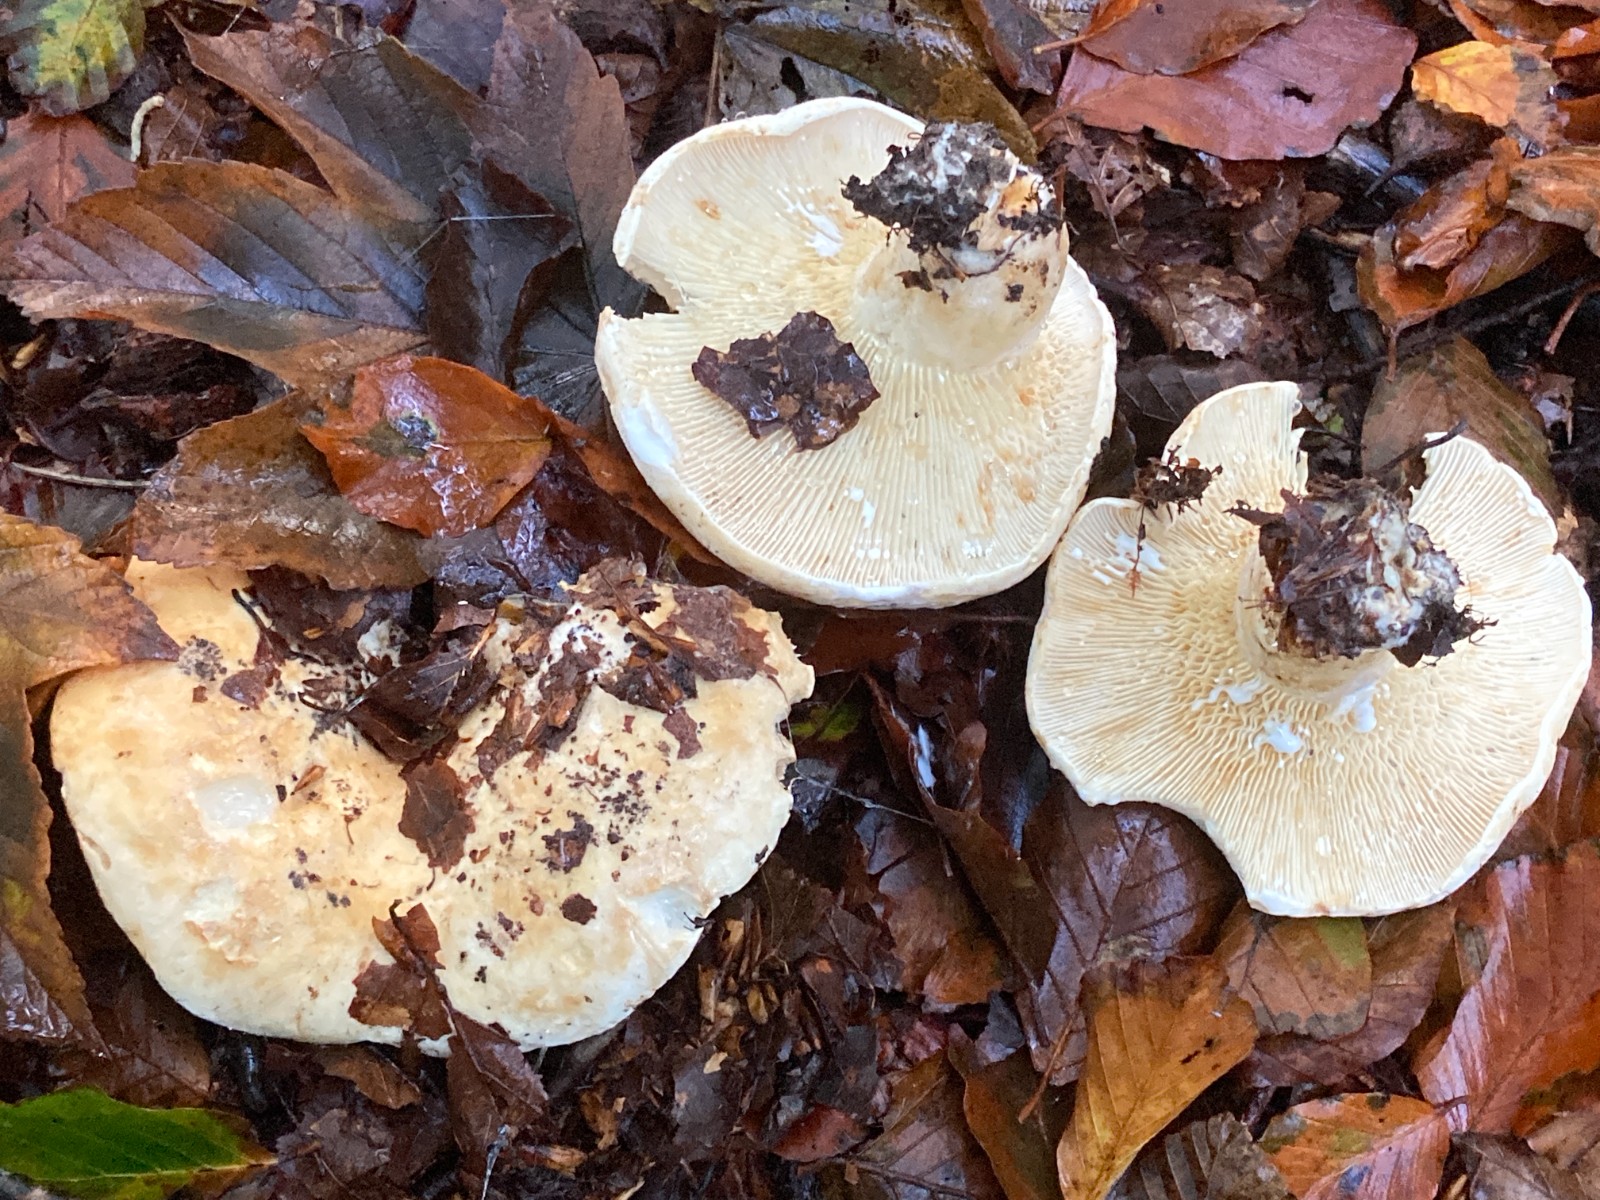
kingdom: Fungi
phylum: Basidiomycota
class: Agaricomycetes
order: Russulales
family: Russulaceae
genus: Lactifluus
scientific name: Lactifluus vellereus
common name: hvidfiltet mælkehat
